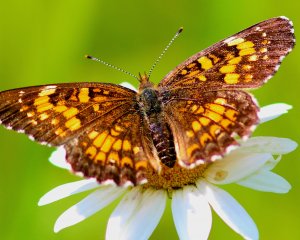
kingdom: Animalia
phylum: Arthropoda
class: Insecta
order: Lepidoptera
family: Nymphalidae
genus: Chlosyne
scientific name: Chlosyne nycteis
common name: Silvery Checkerspot
